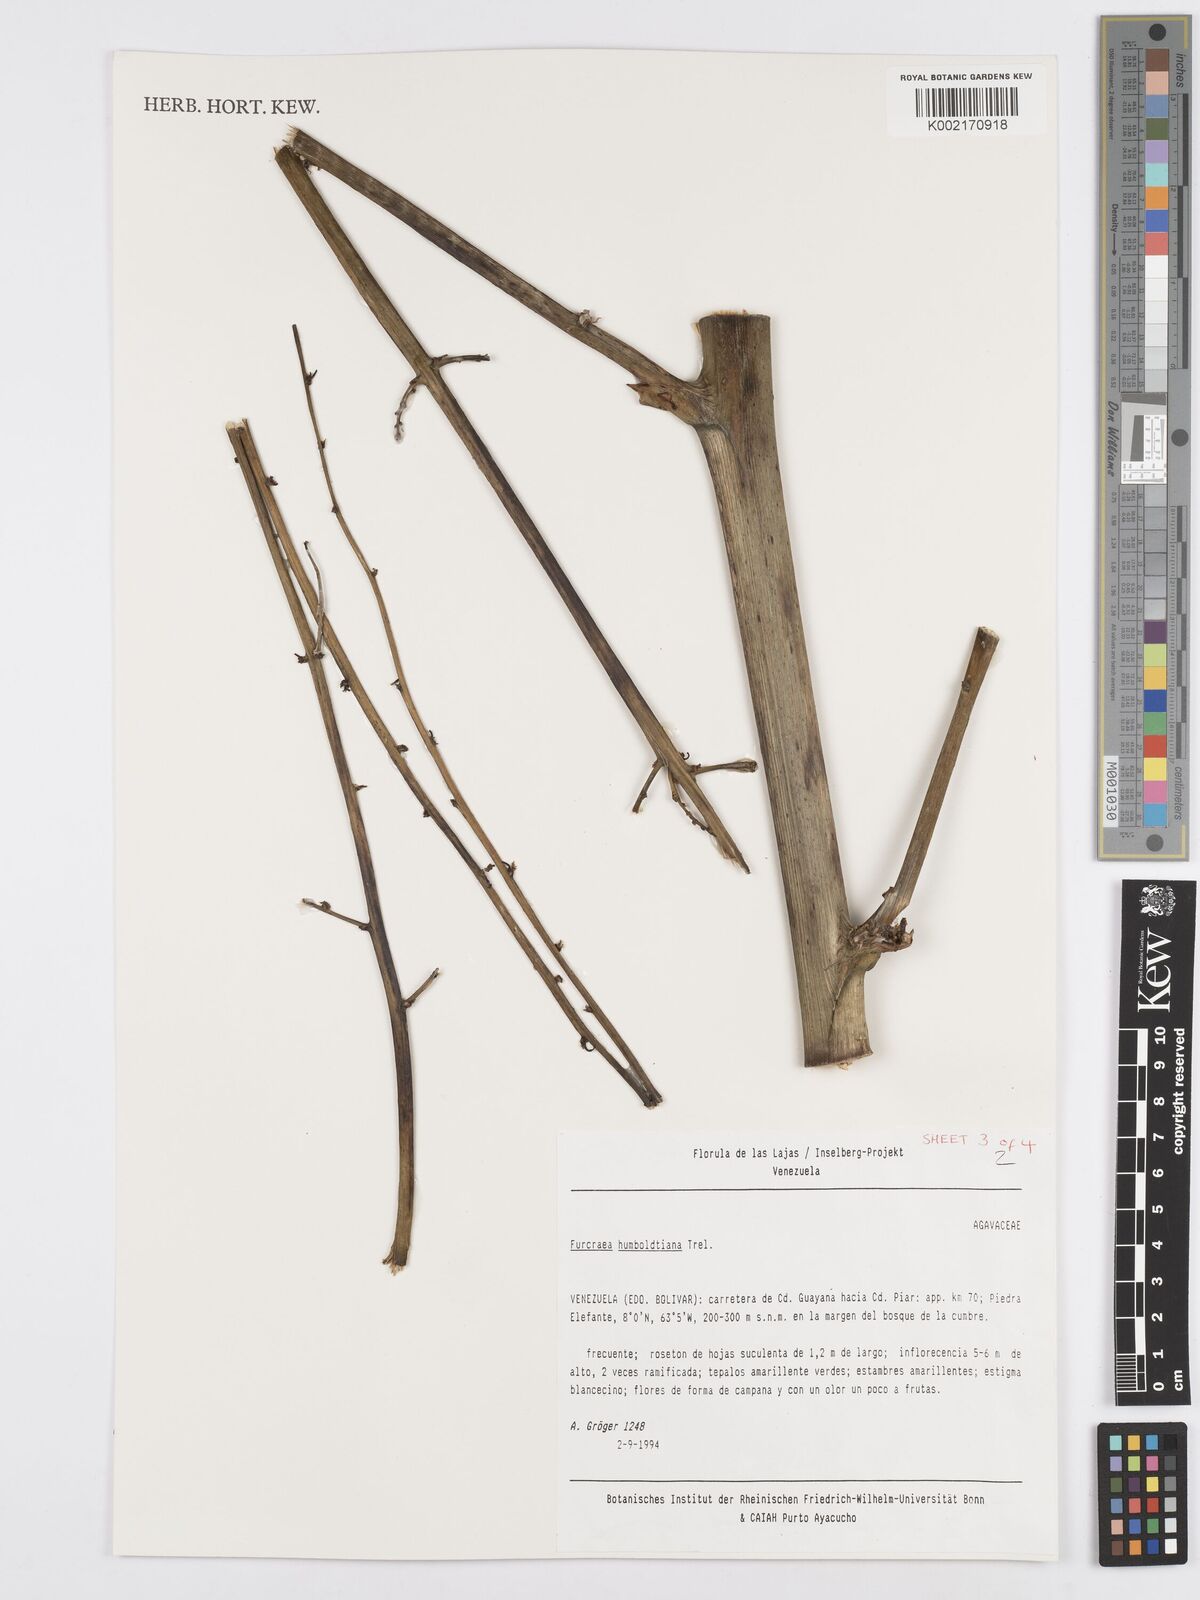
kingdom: Plantae
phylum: Tracheophyta
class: Liliopsida
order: Asparagales
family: Asparagaceae
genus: Furcraea
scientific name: Furcraea acaulis
